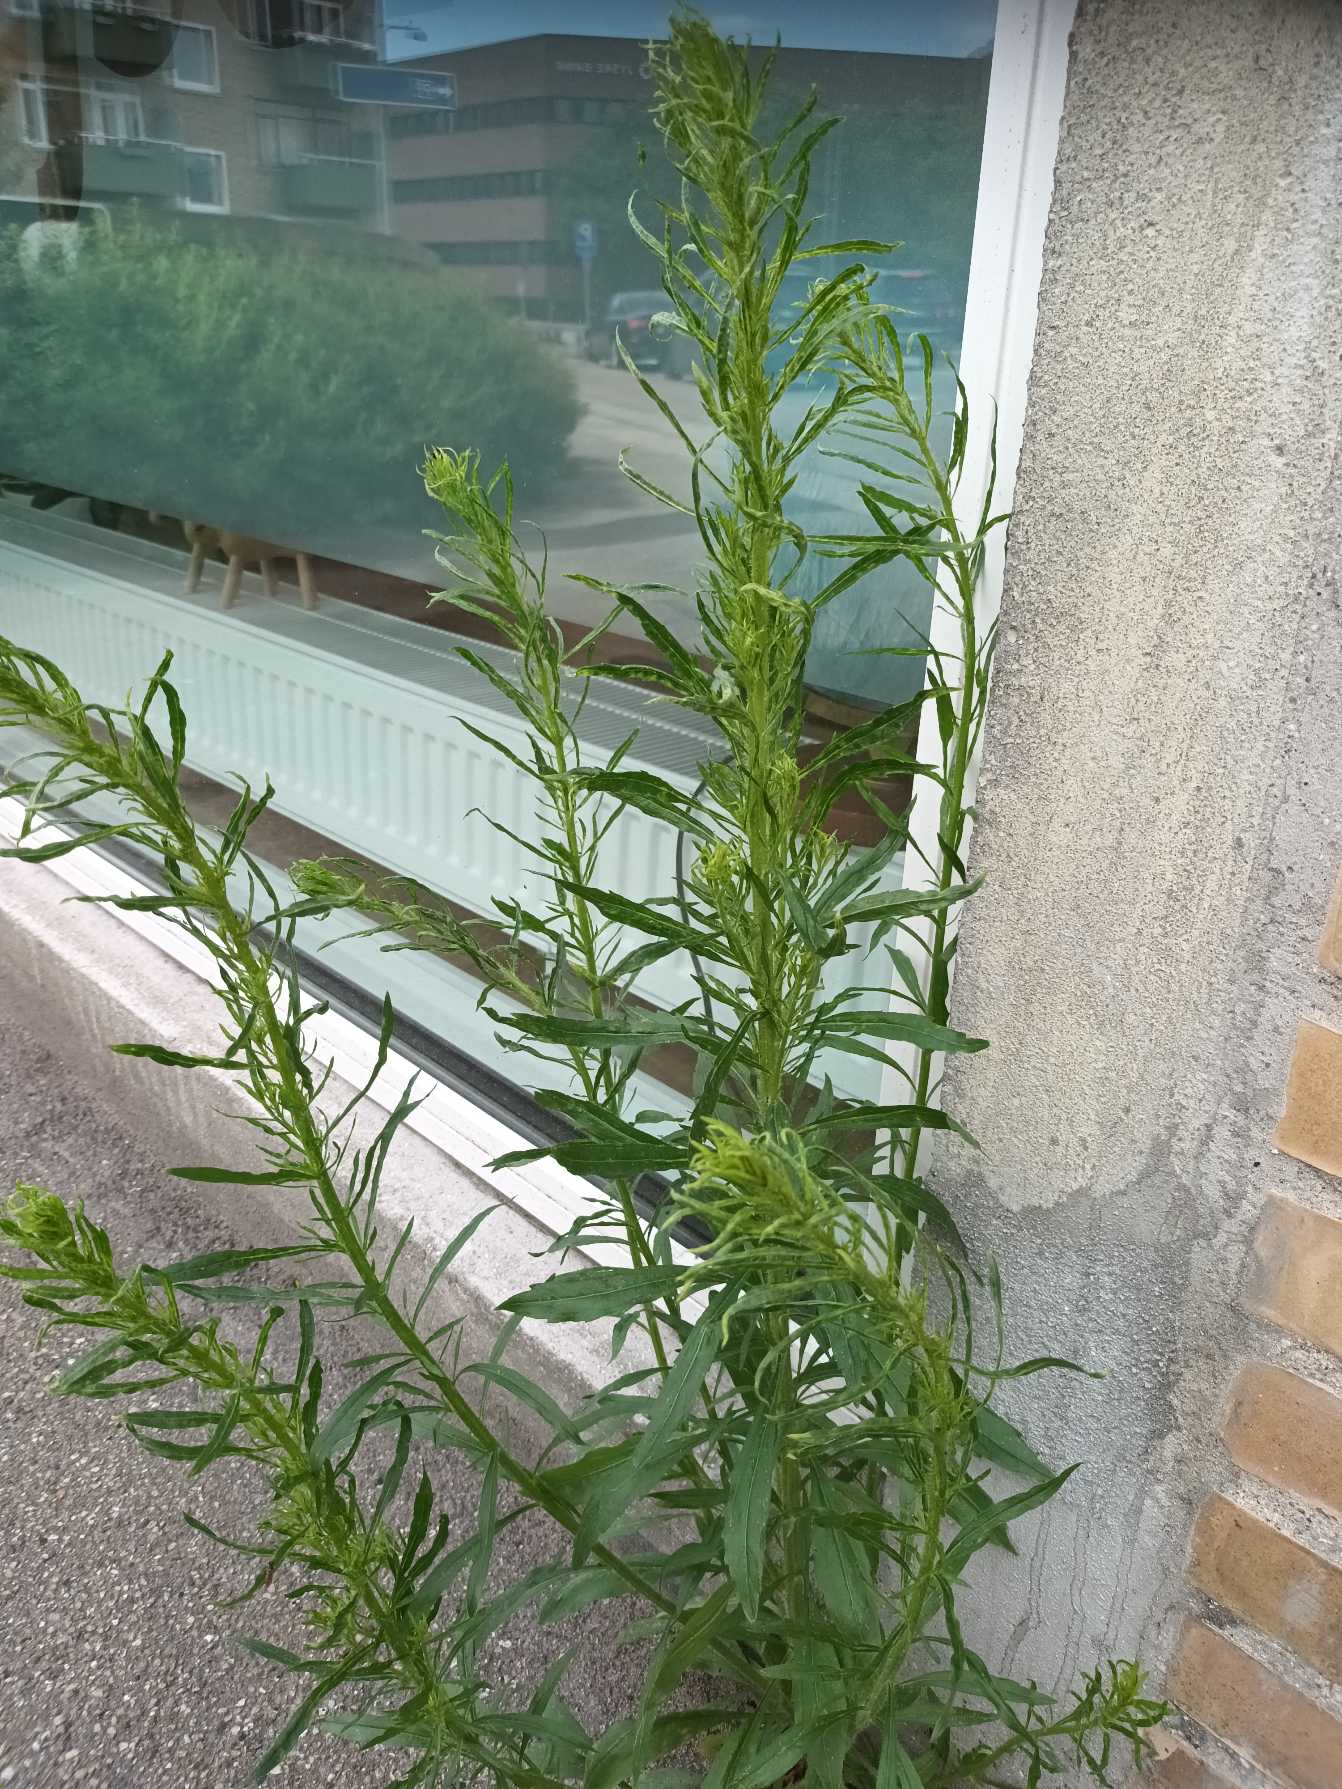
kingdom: Plantae
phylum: Tracheophyta
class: Magnoliopsida
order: Asterales
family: Asteraceae
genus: Erigeron
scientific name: Erigeron canadensis
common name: Kanadisk bakkestjerne
